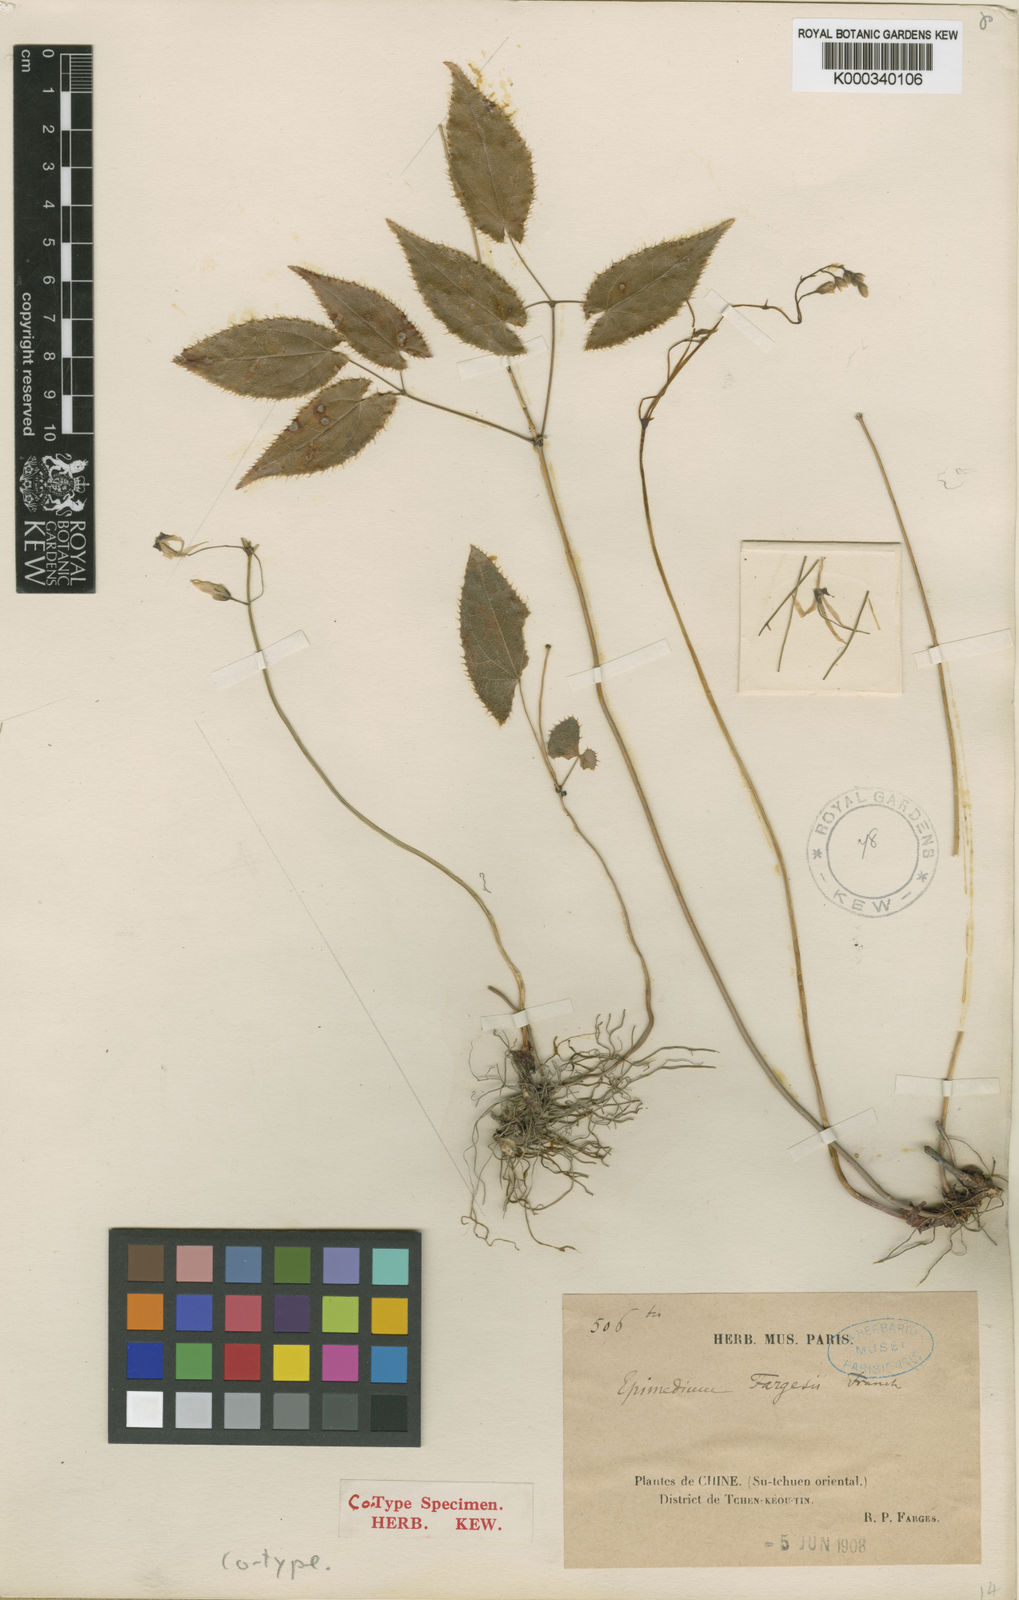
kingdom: Plantae
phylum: Tracheophyta
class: Magnoliopsida
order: Ranunculales
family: Berberidaceae
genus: Epimedium
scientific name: Epimedium fargesii
